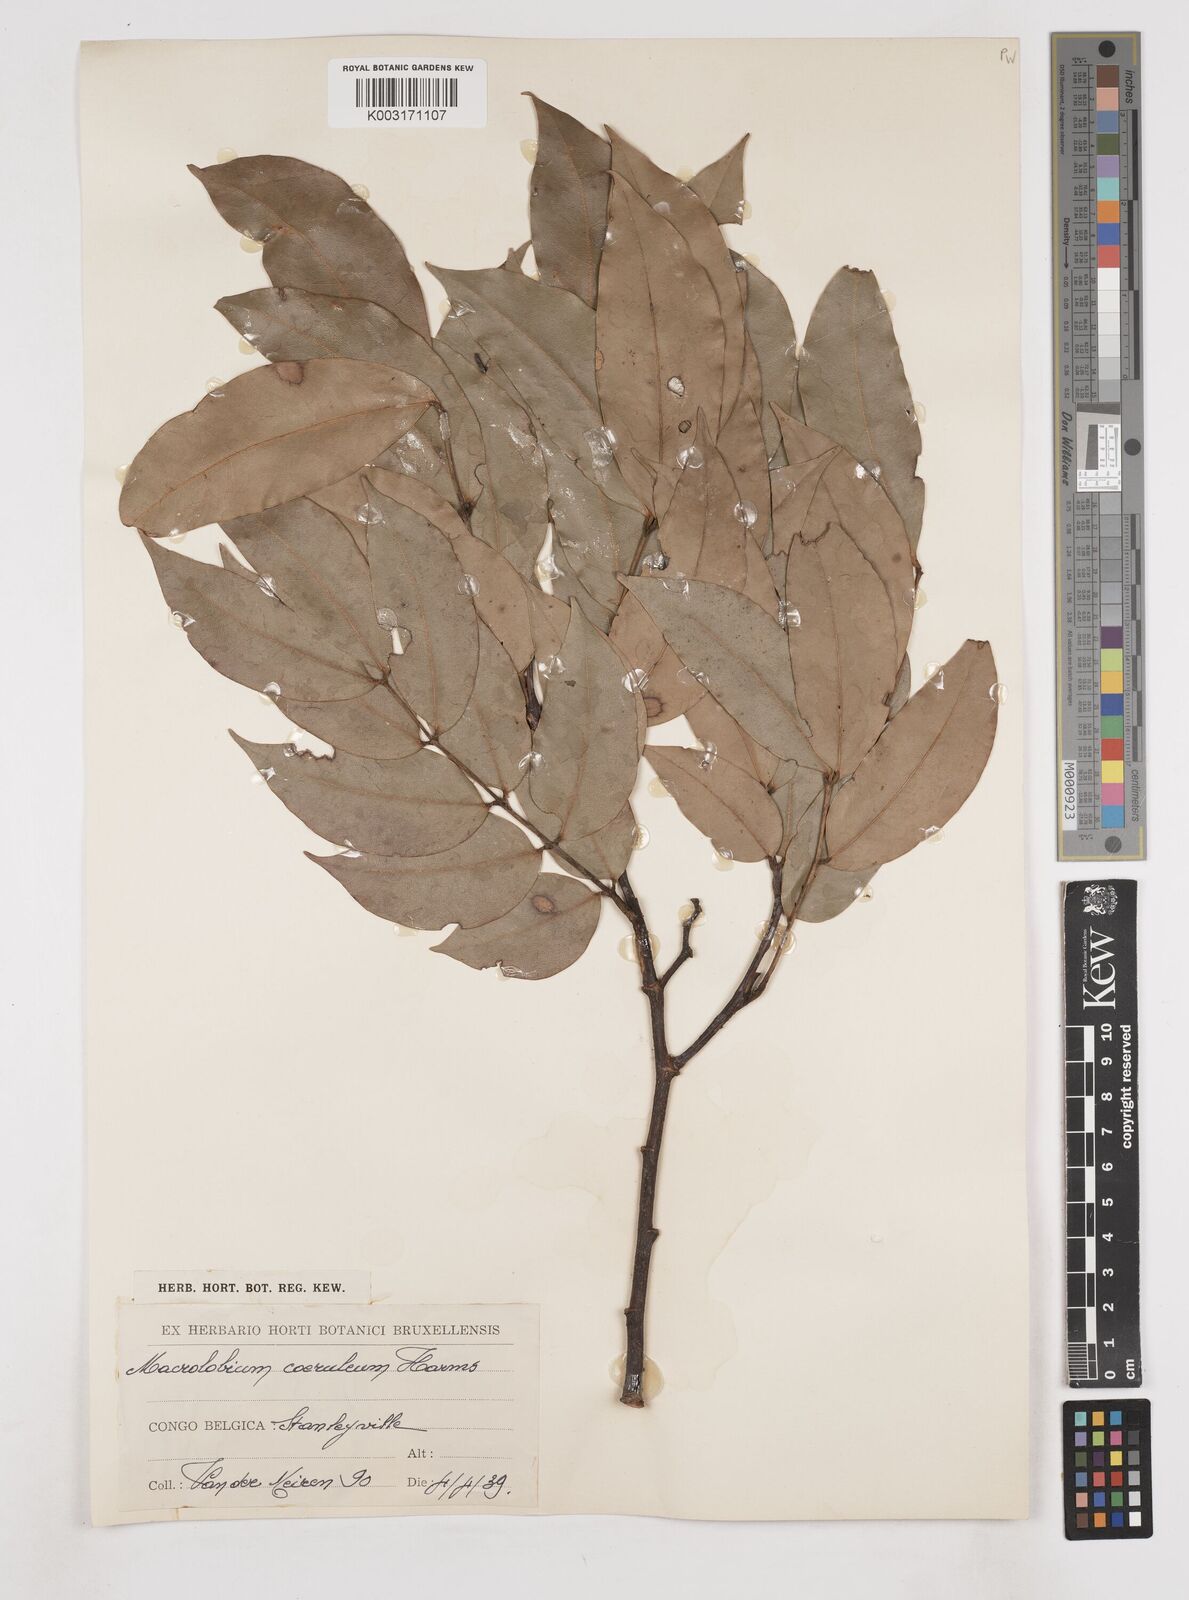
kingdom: Plantae
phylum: Tracheophyta
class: Magnoliopsida
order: Fabales
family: Fabaceae
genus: Paramacrolobium
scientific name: Paramacrolobium coeruleum
